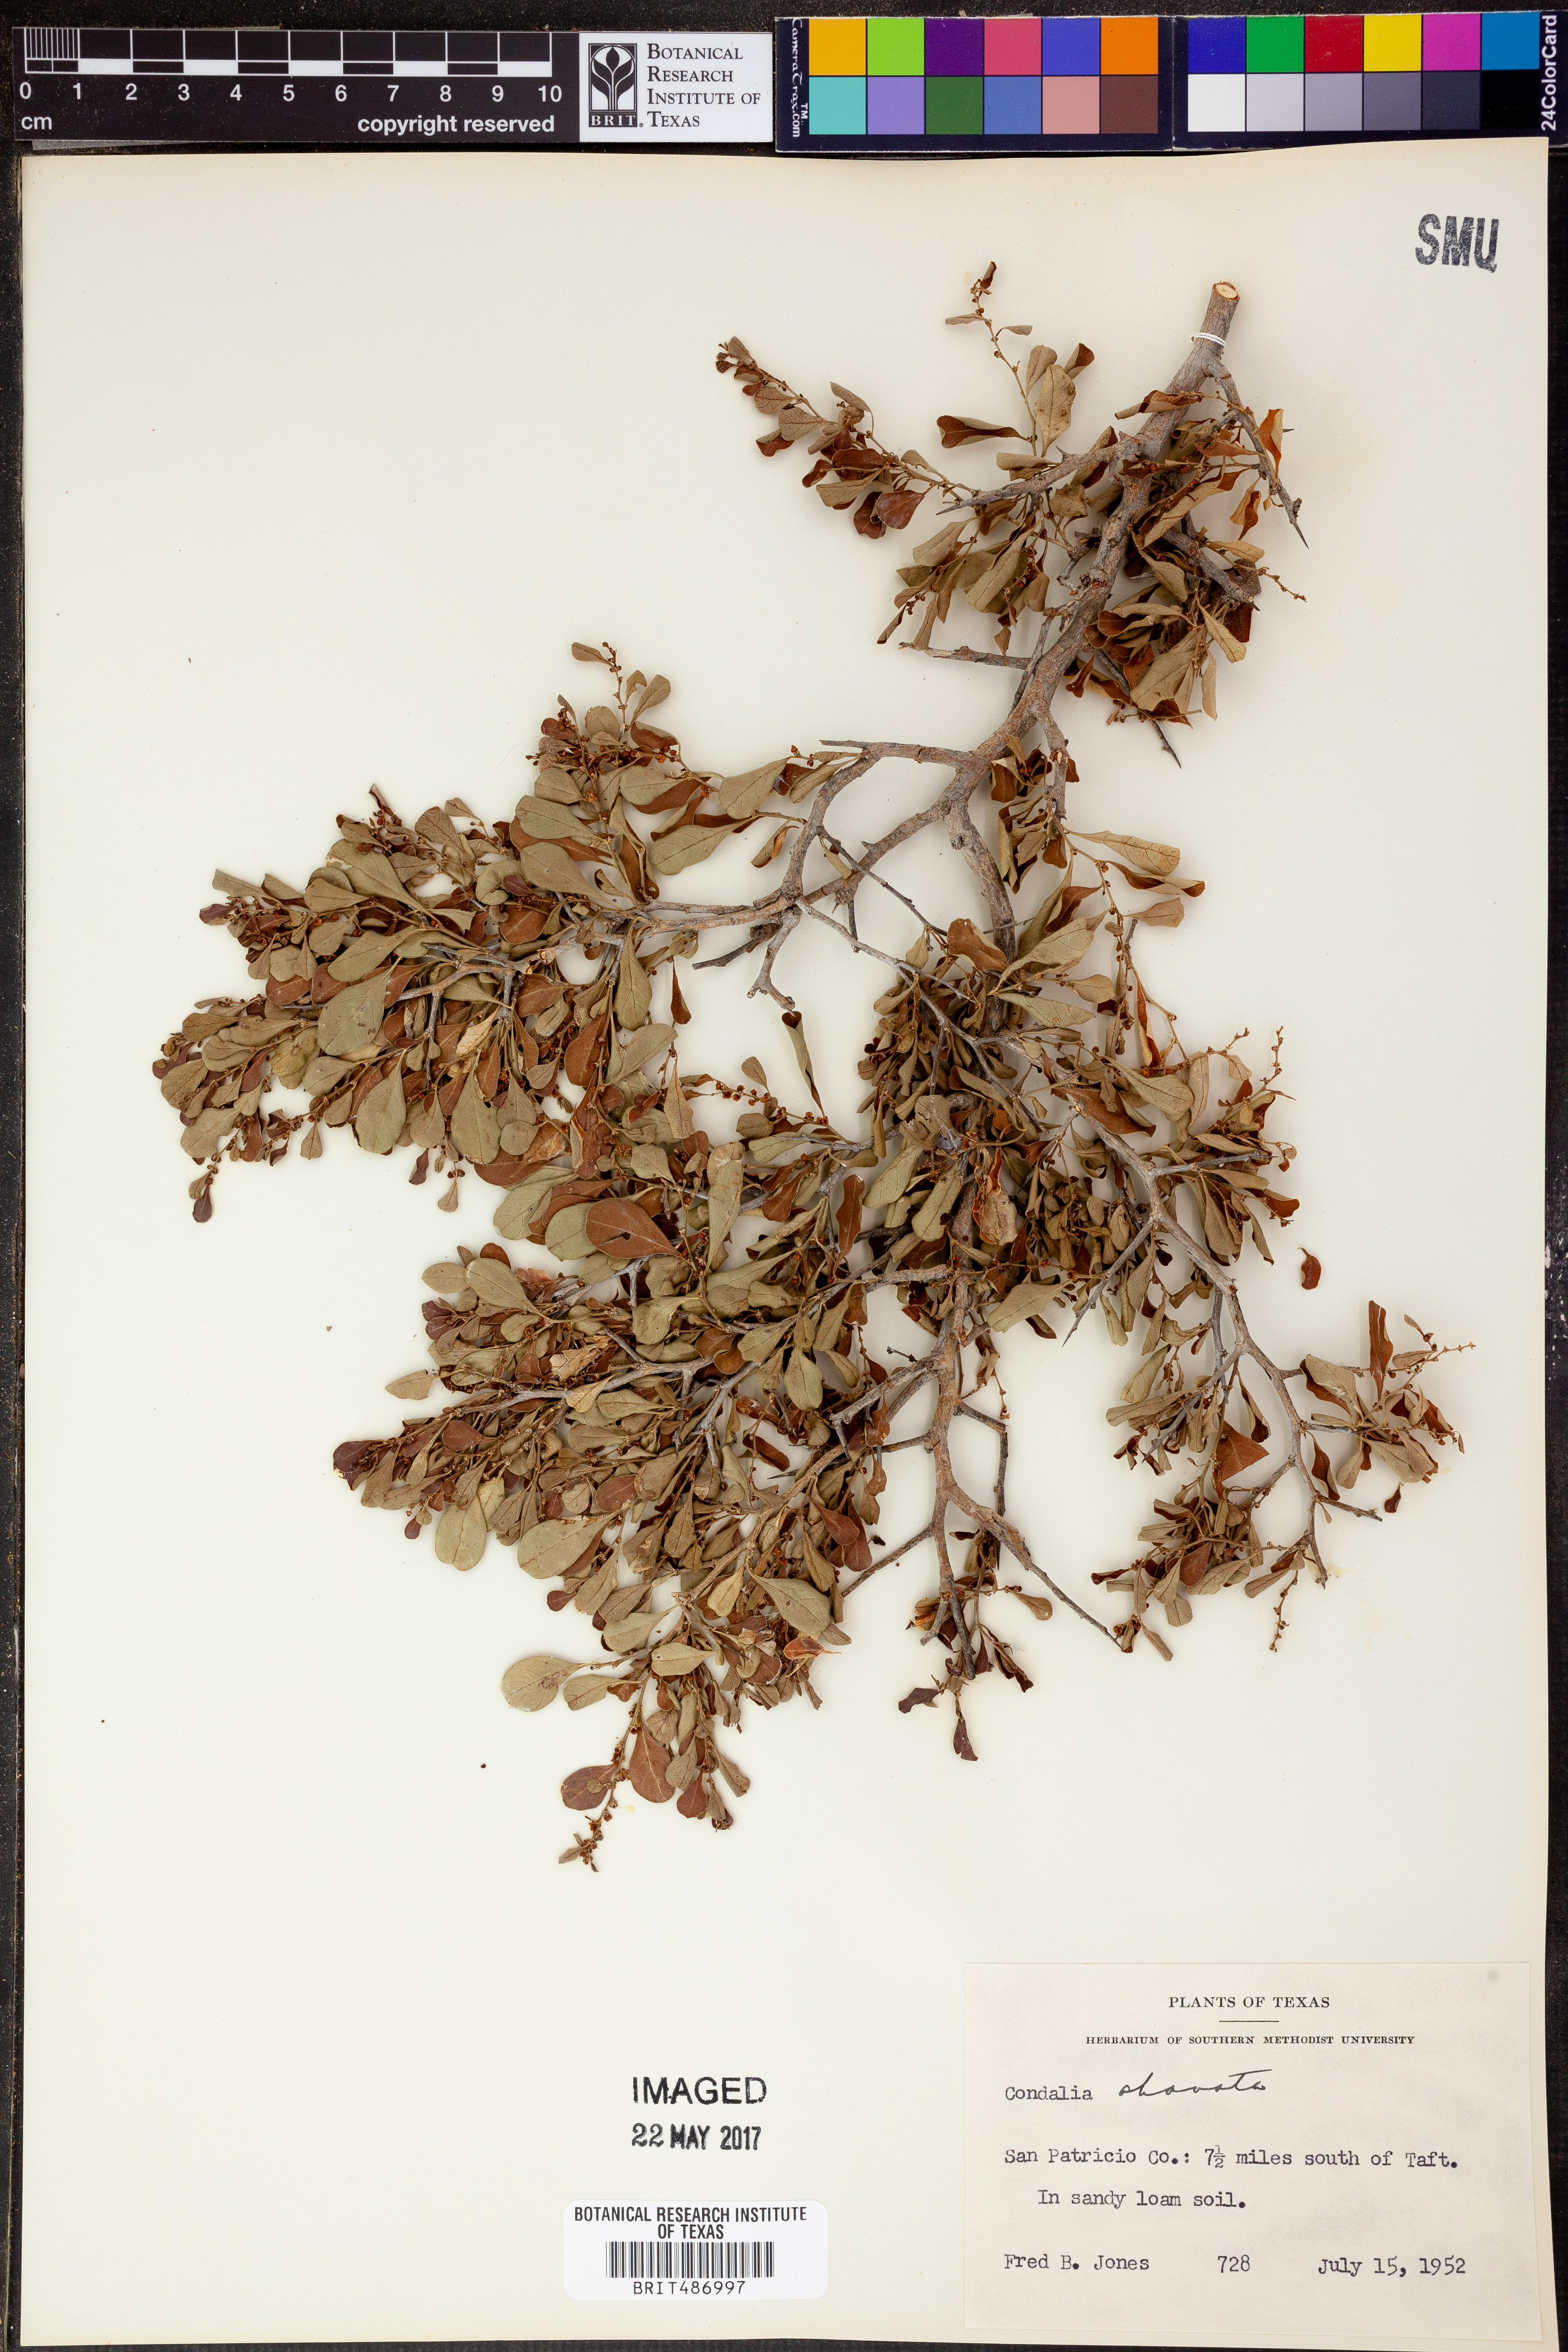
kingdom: Plantae
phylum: Tracheophyta
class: Magnoliopsida
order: Rosales
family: Rhamnaceae
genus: Condalia
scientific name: Condalia hookeri
